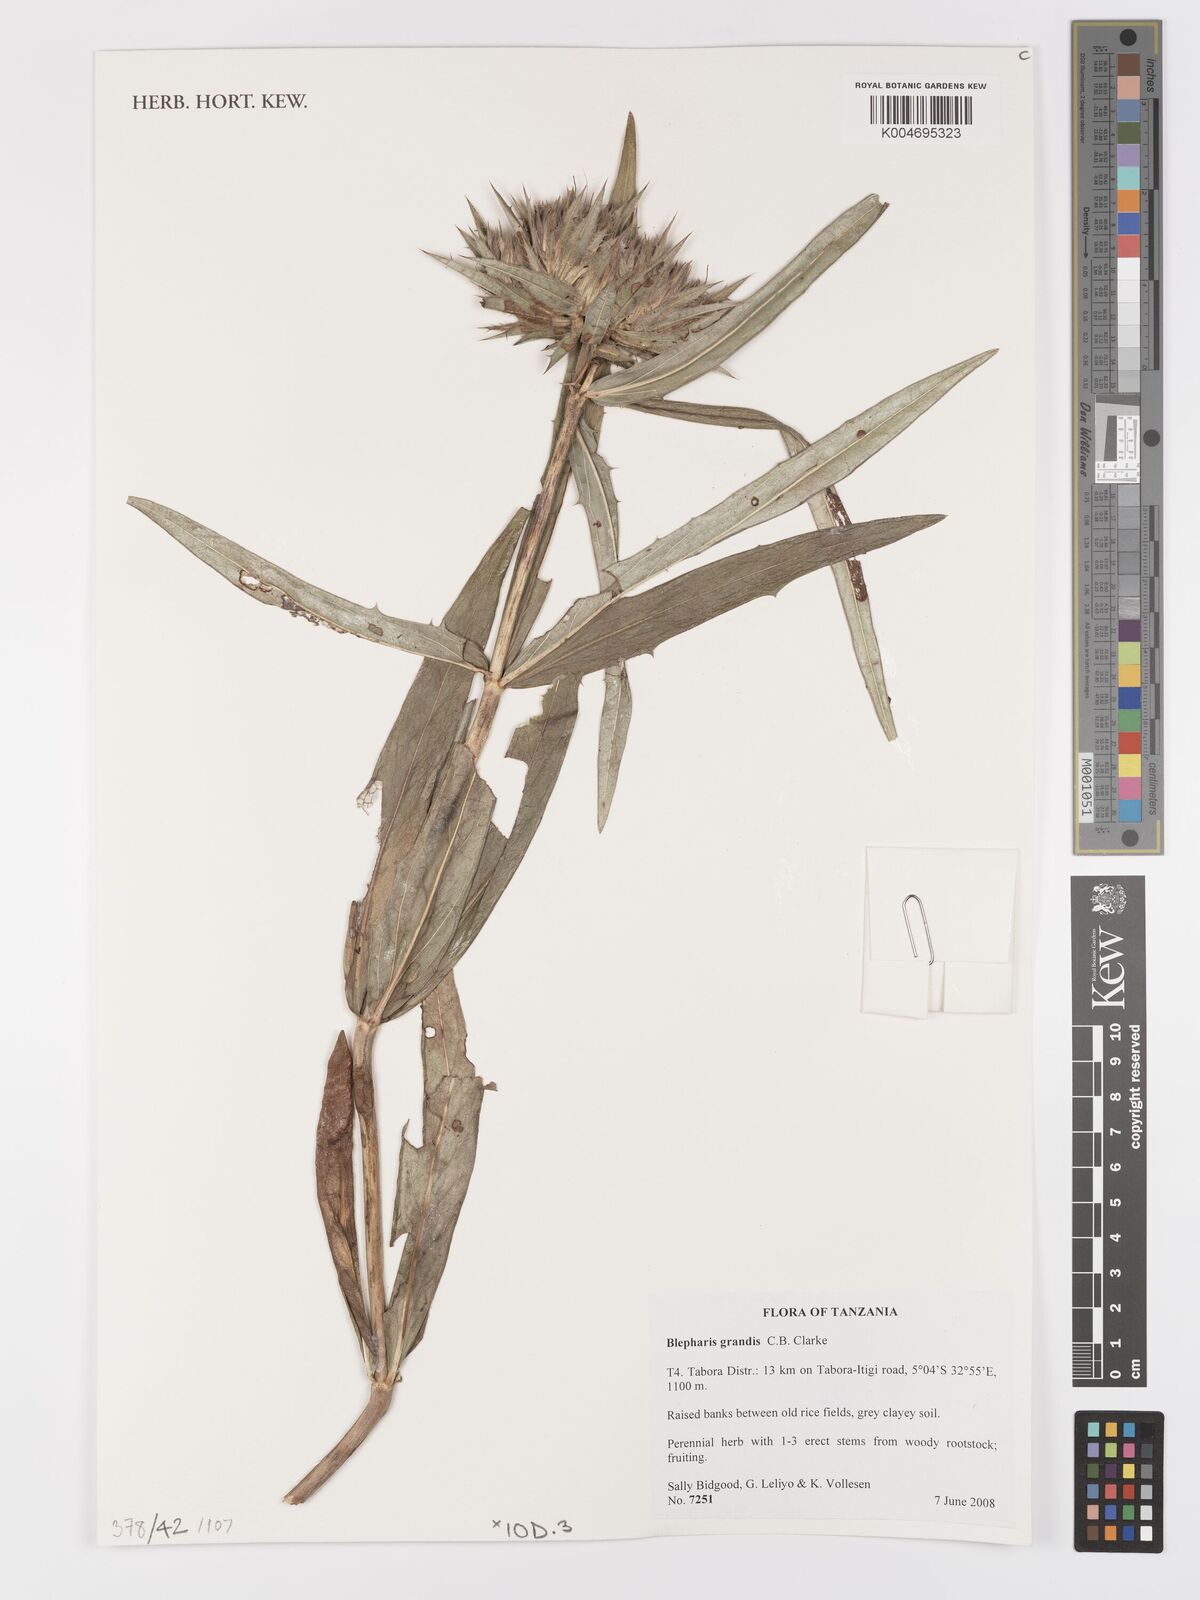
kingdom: Plantae
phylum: Tracheophyta
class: Magnoliopsida
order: Lamiales
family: Acanthaceae
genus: Blepharis
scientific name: Blepharis grandis
